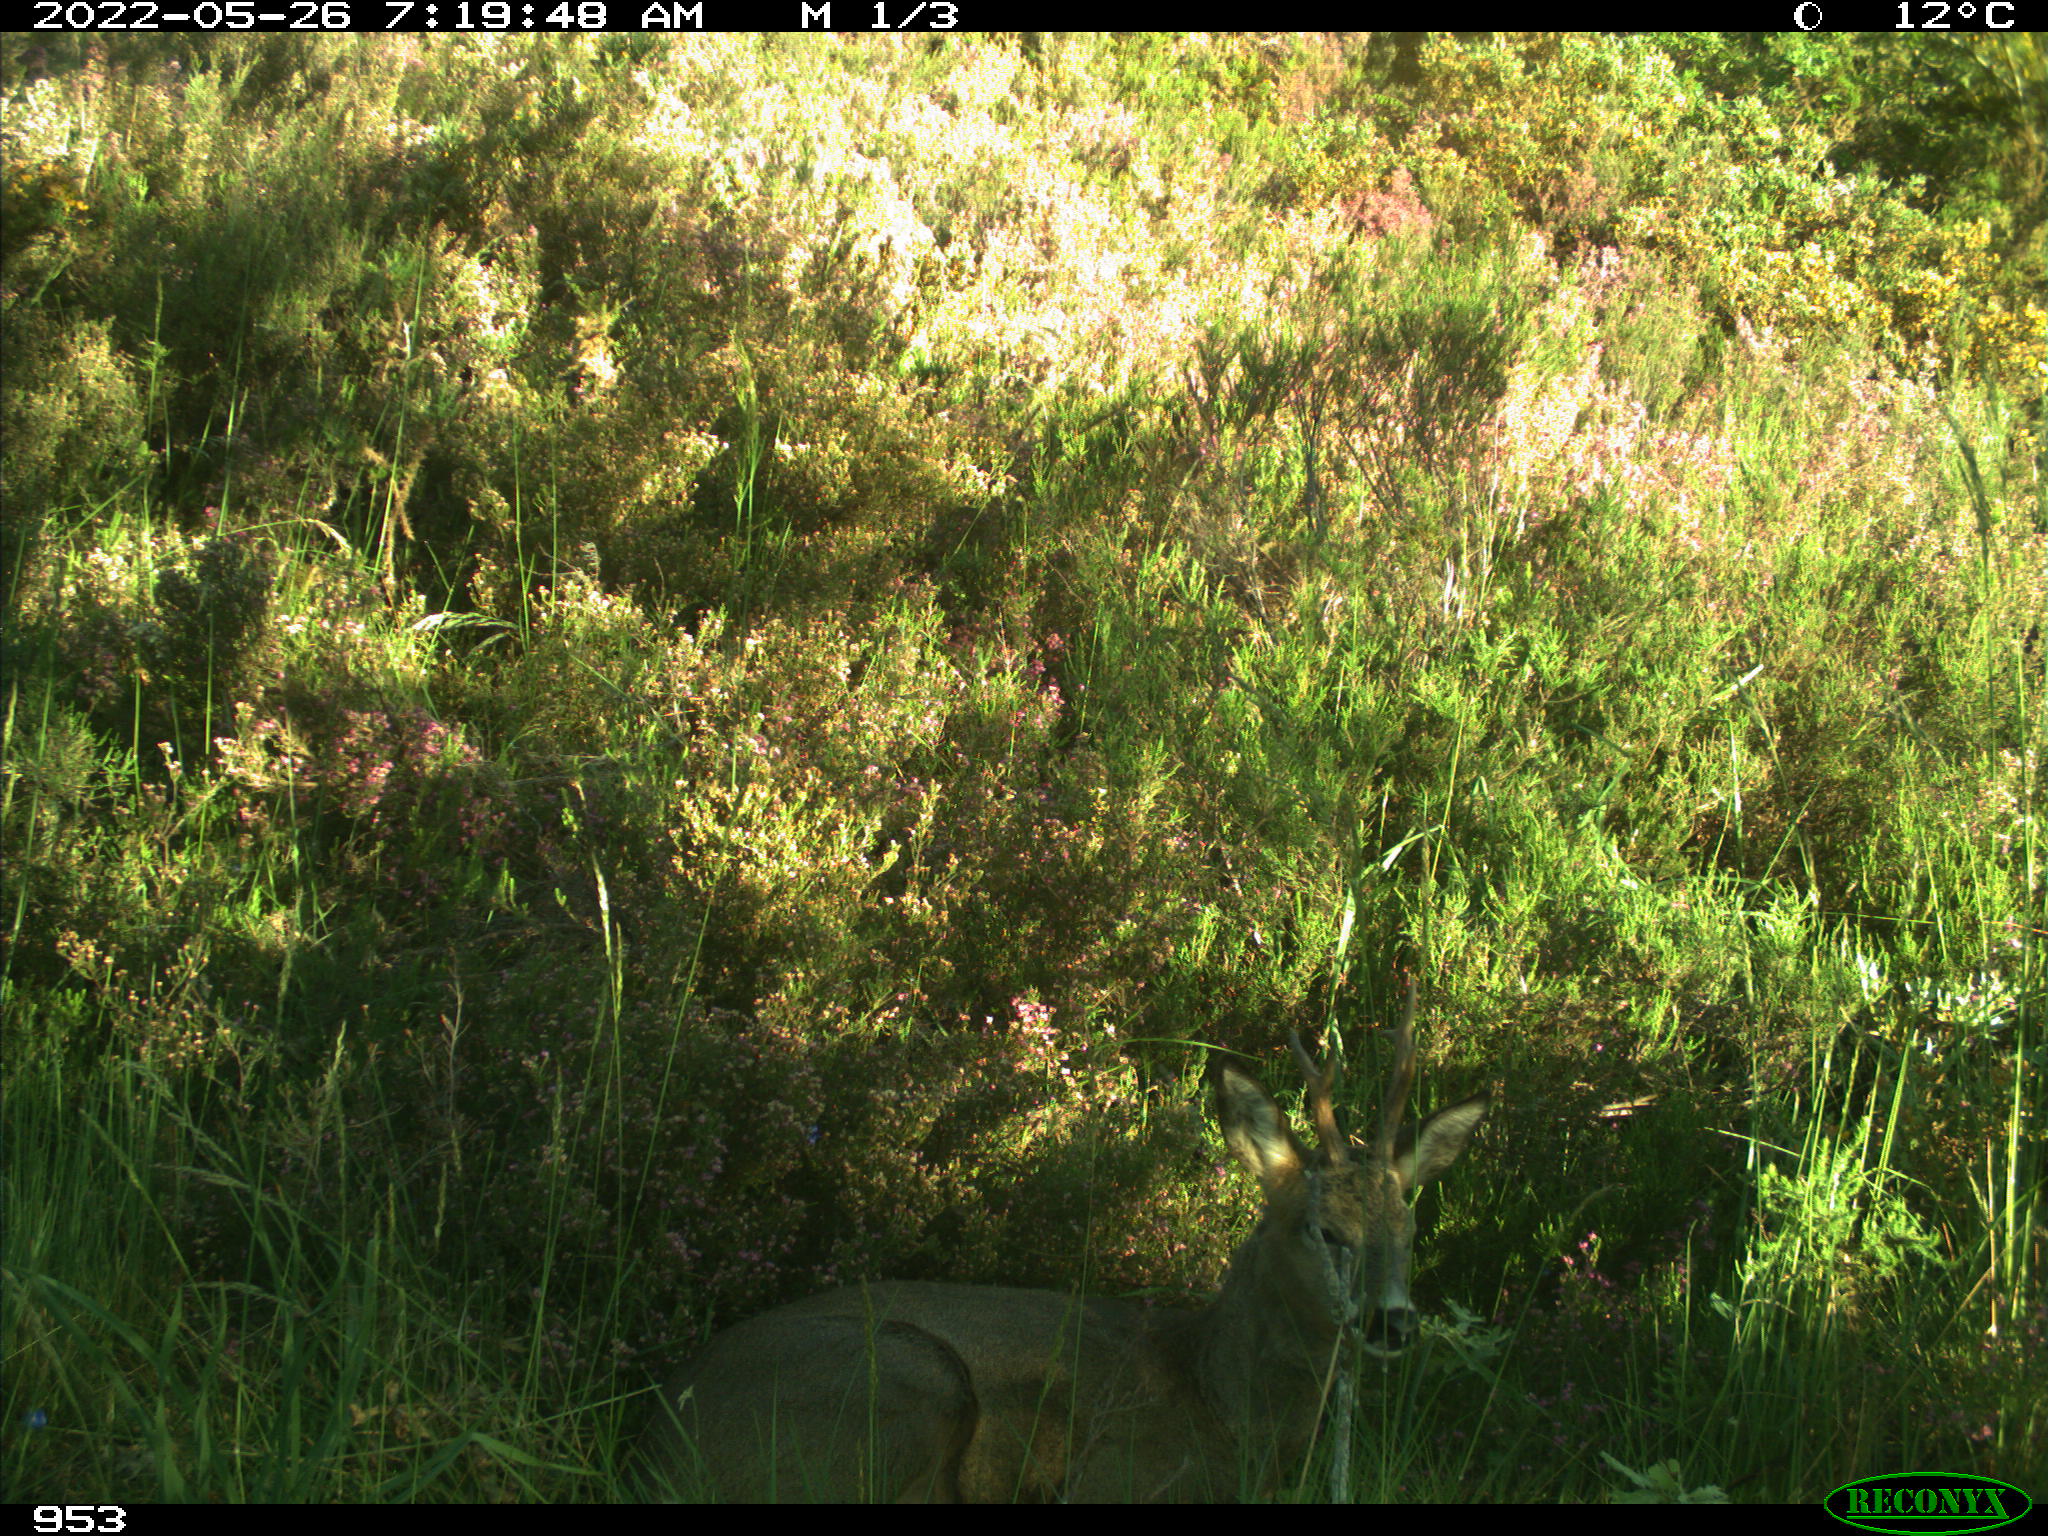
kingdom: Animalia
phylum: Chordata
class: Mammalia
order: Artiodactyla
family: Cervidae
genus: Capreolus
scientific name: Capreolus capreolus
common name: Western roe deer
